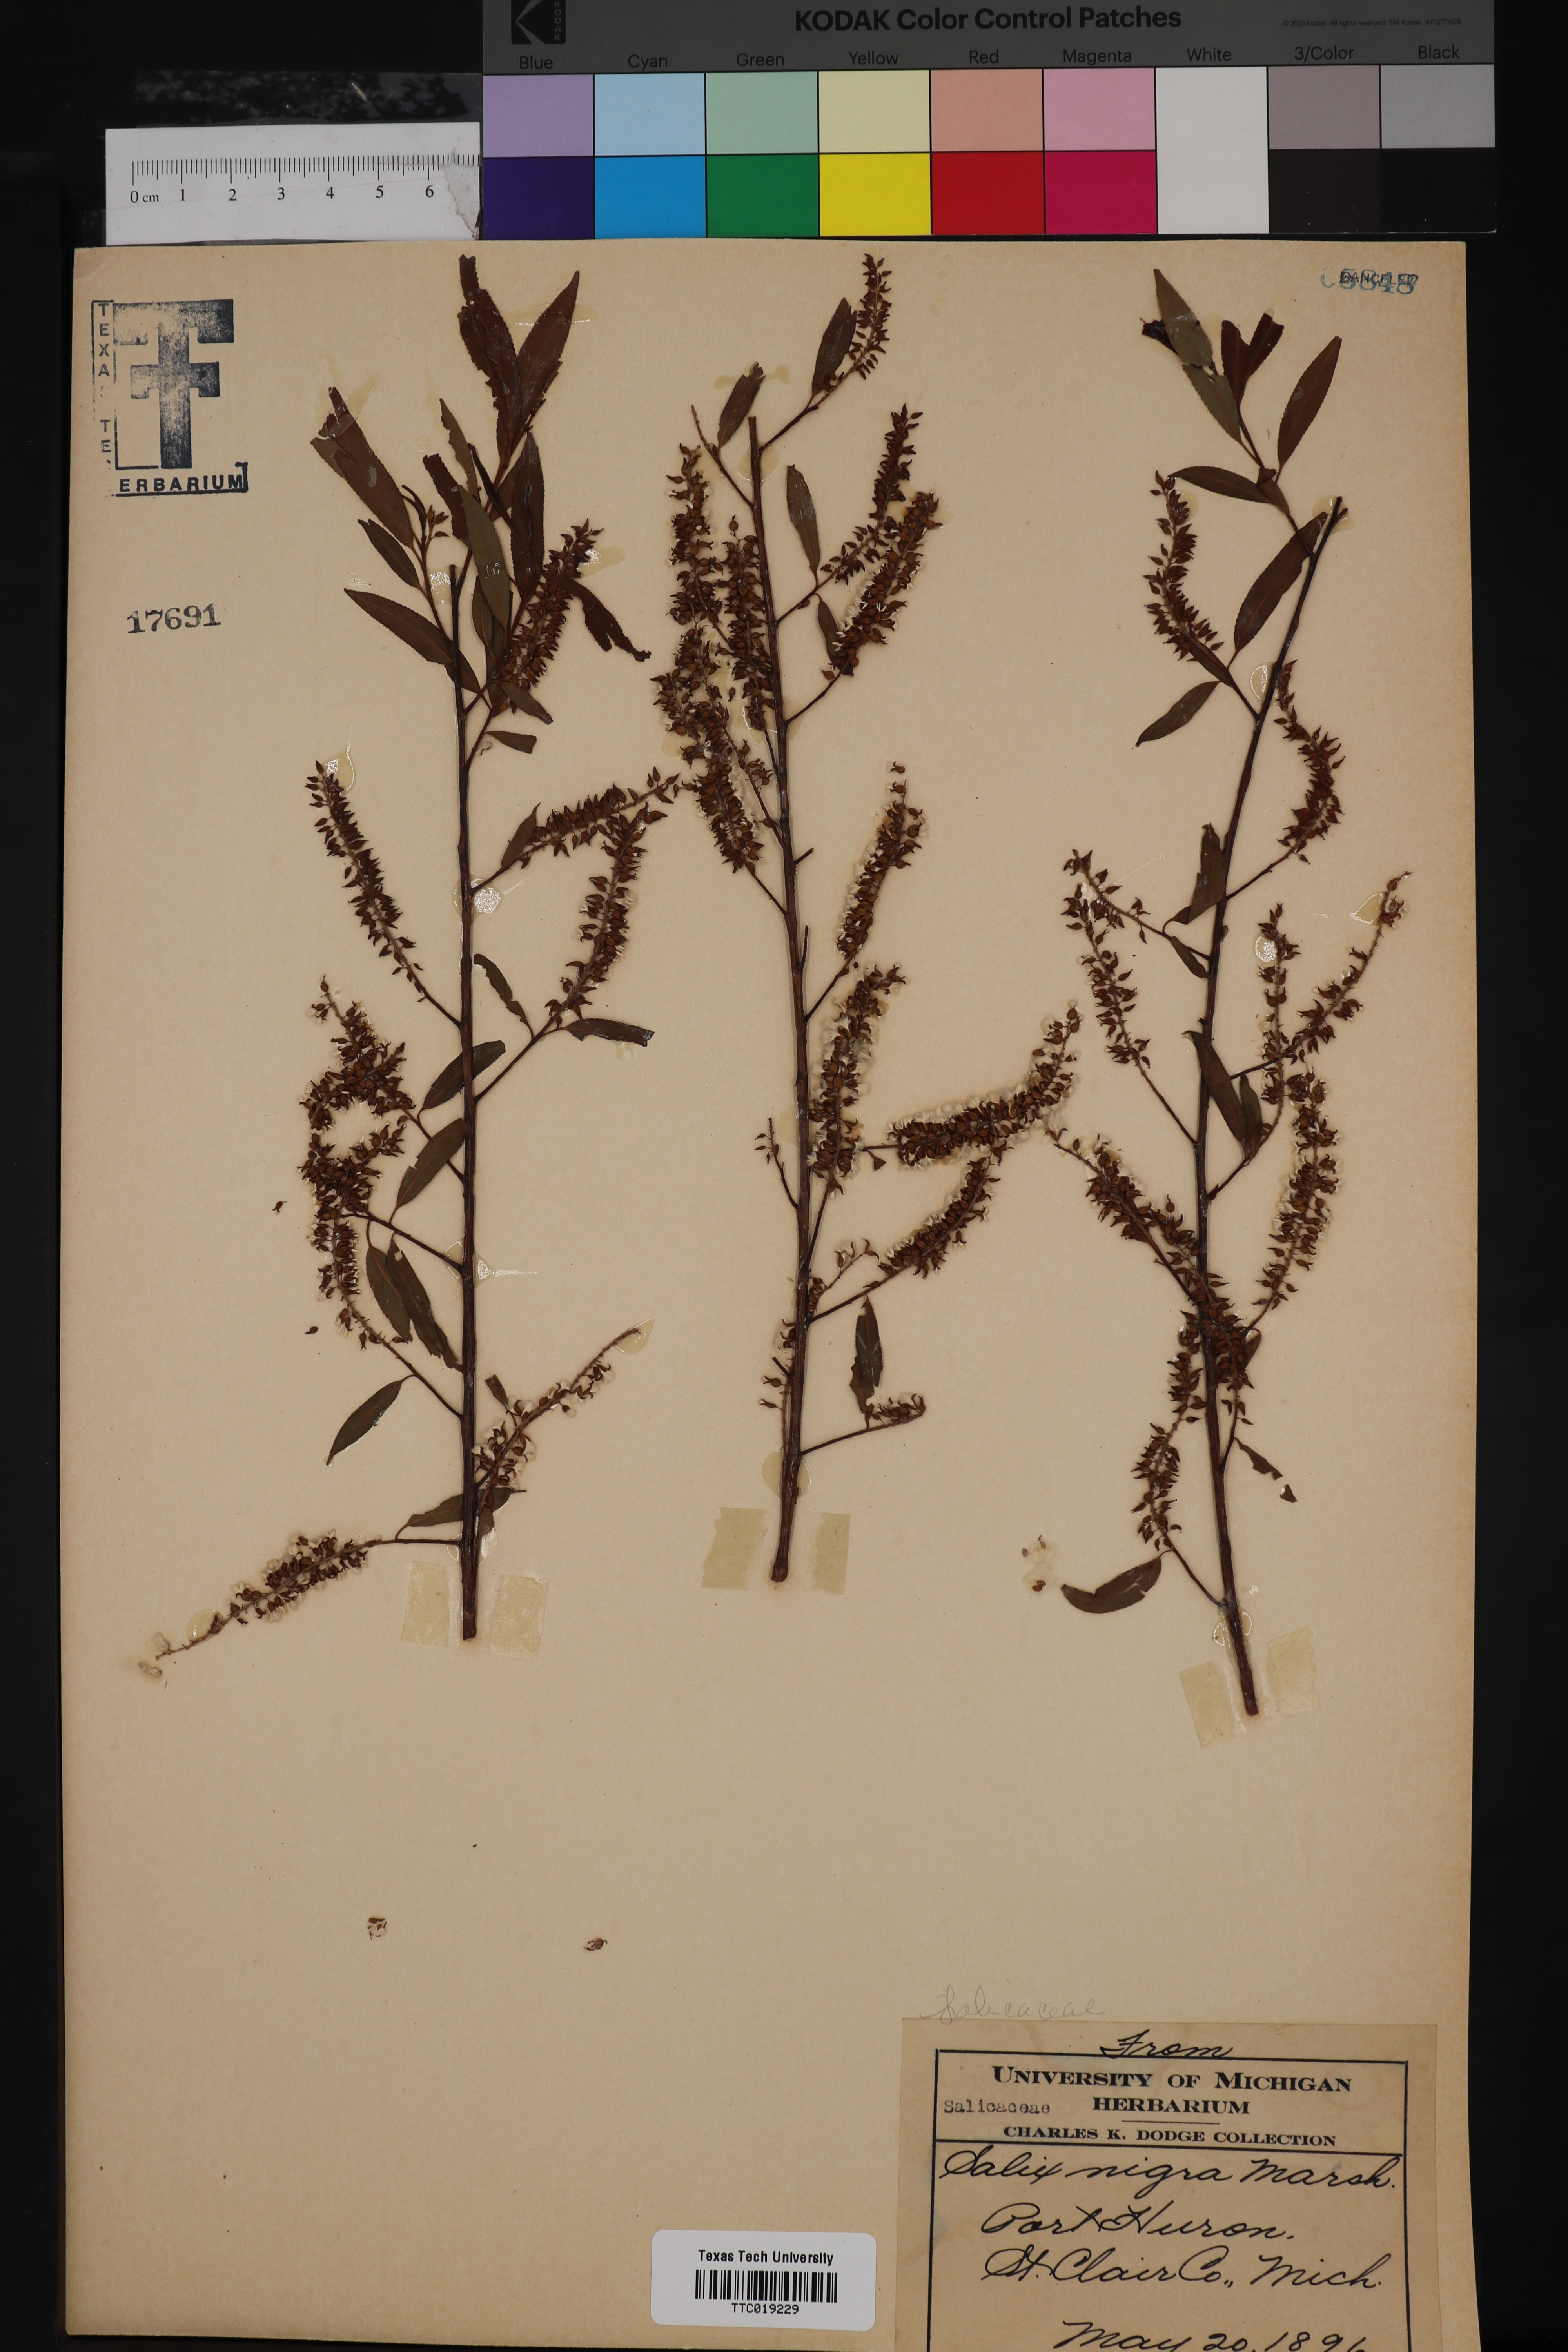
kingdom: Plantae
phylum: Tracheophyta
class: Magnoliopsida
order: Malpighiales
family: Salicaceae
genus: Salix
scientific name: Salix nigra
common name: Black willow
